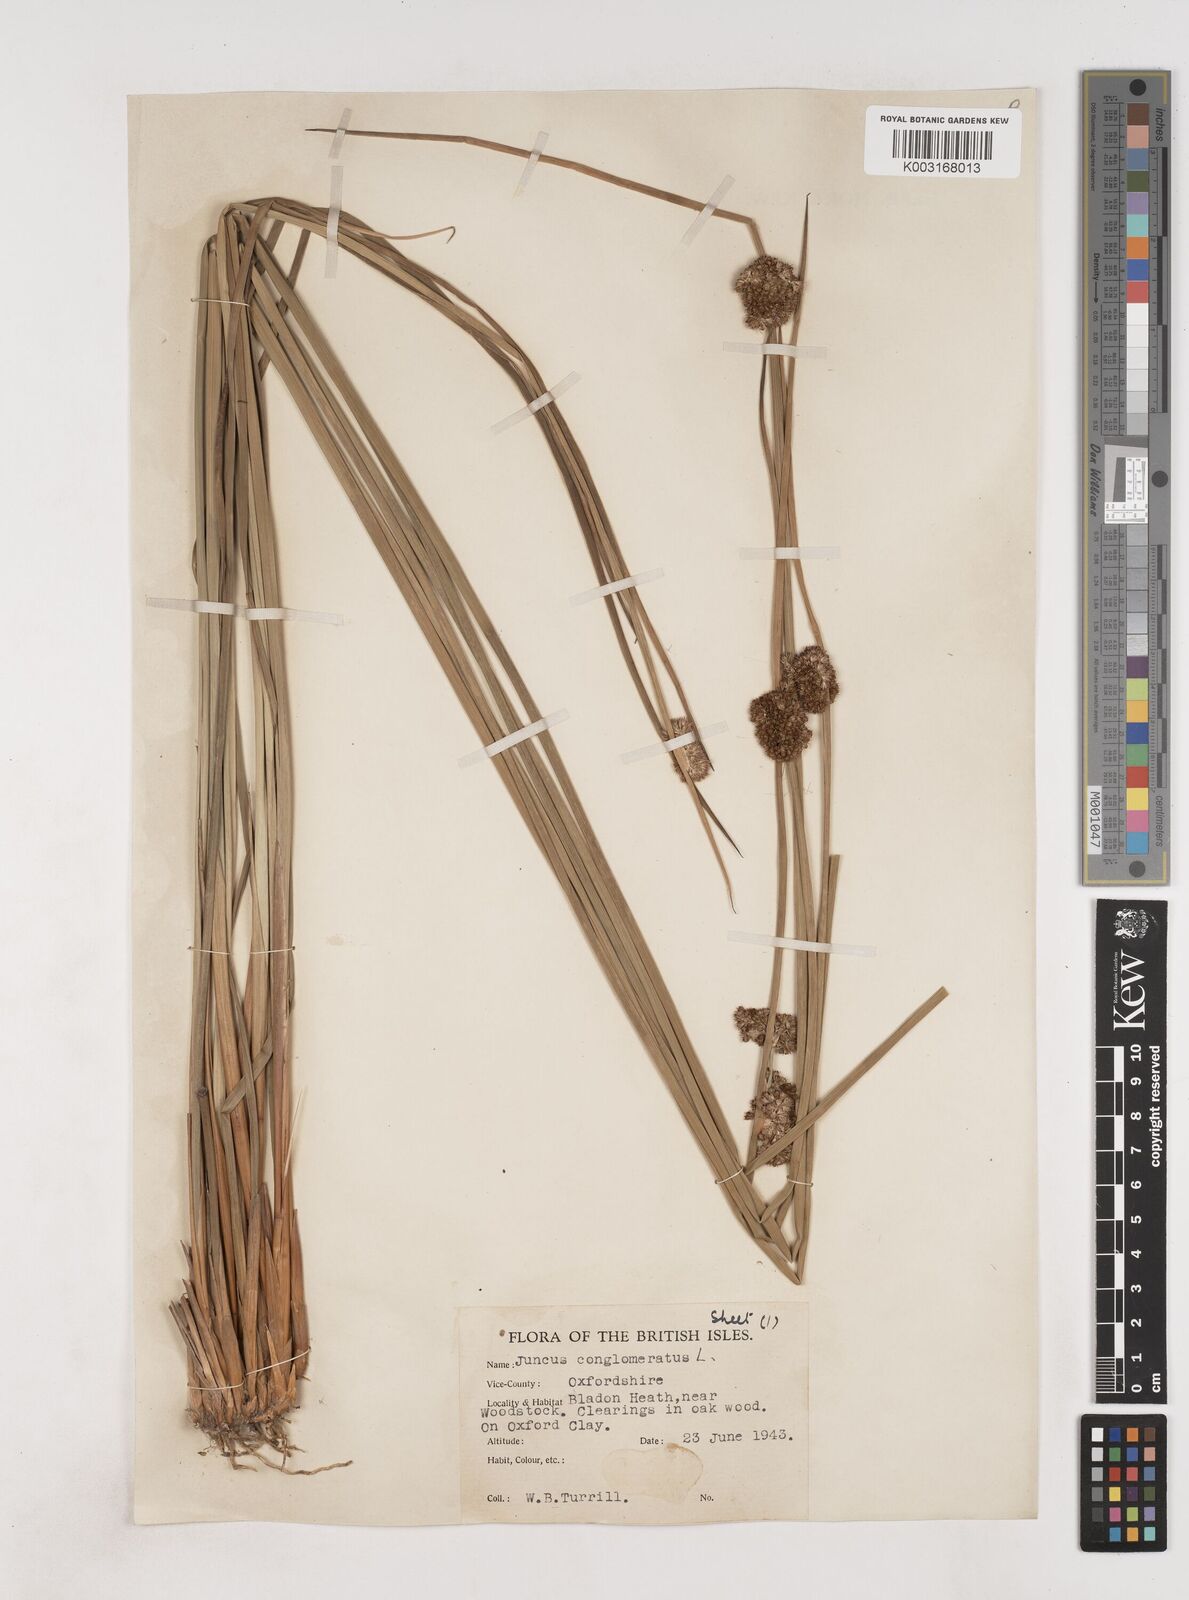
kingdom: Plantae
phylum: Tracheophyta
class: Liliopsida
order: Poales
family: Juncaceae
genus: Juncus
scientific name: Juncus conglomeratus
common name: Compact rush
